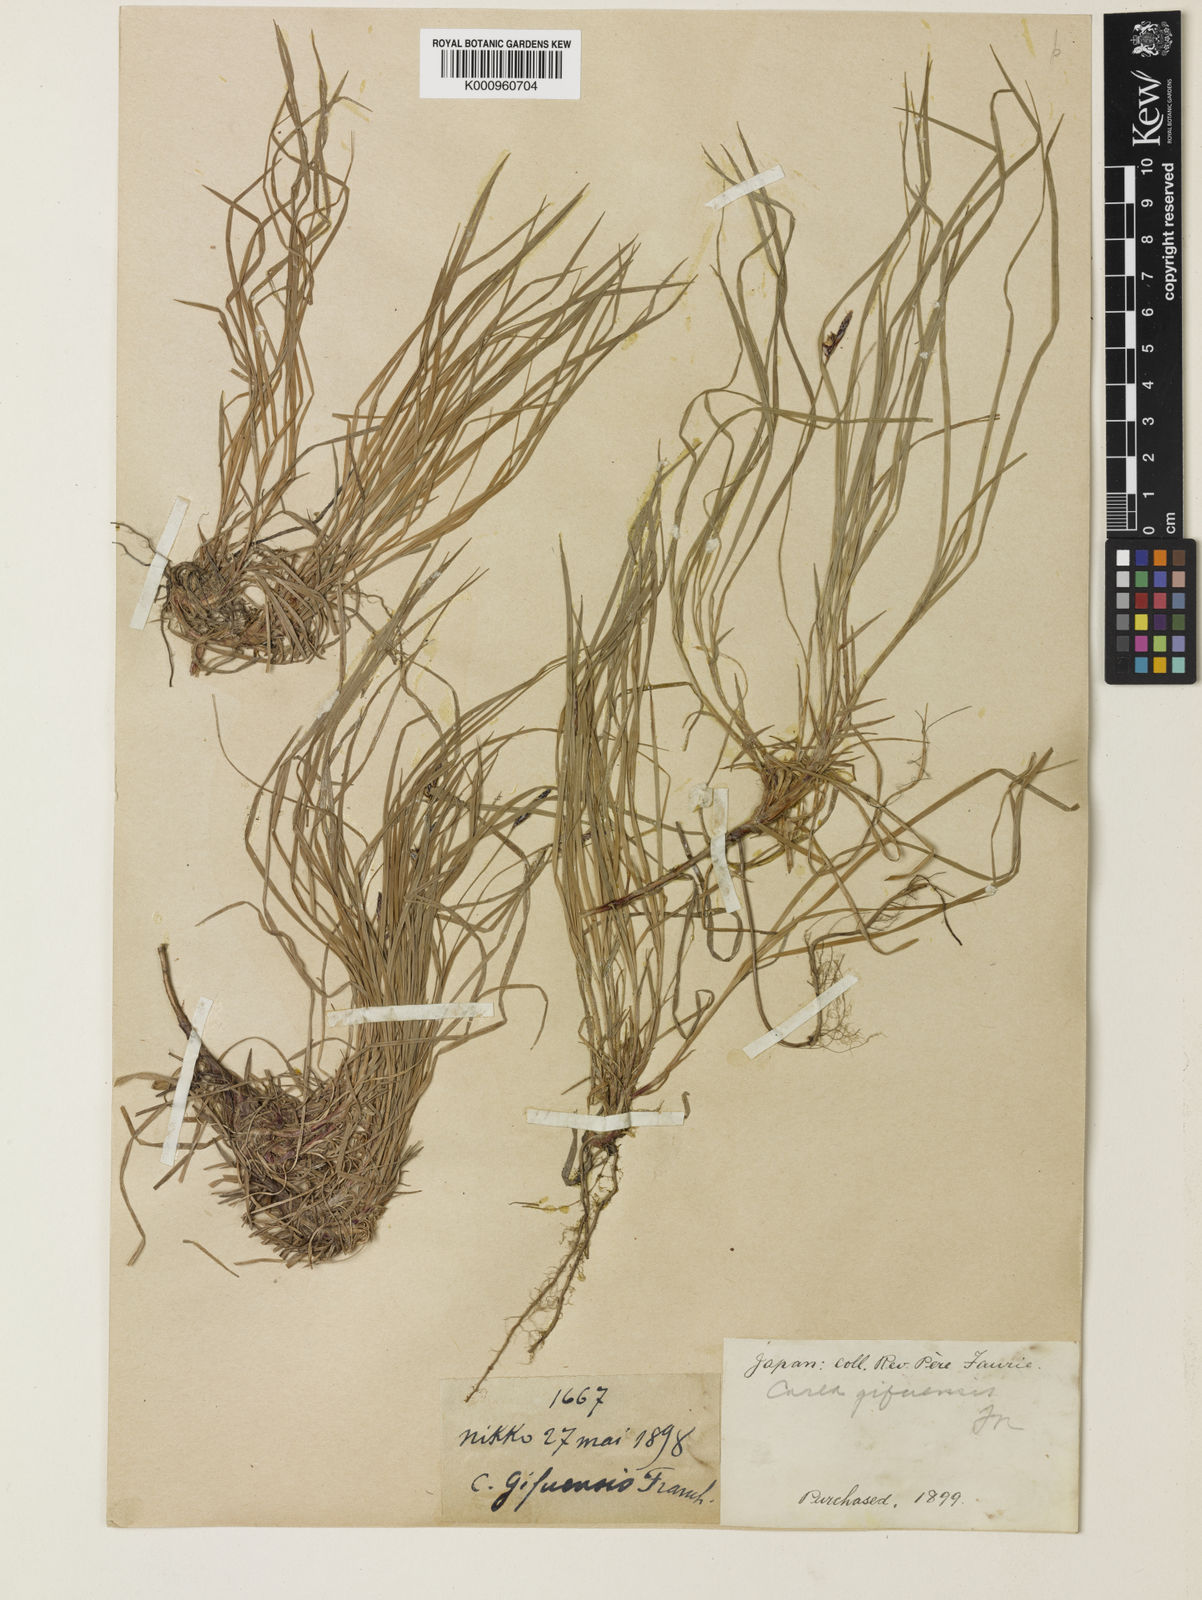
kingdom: Plantae
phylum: Tracheophyta
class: Liliopsida
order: Poales
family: Cyperaceae
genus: Carex
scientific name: Carex gifuensis
